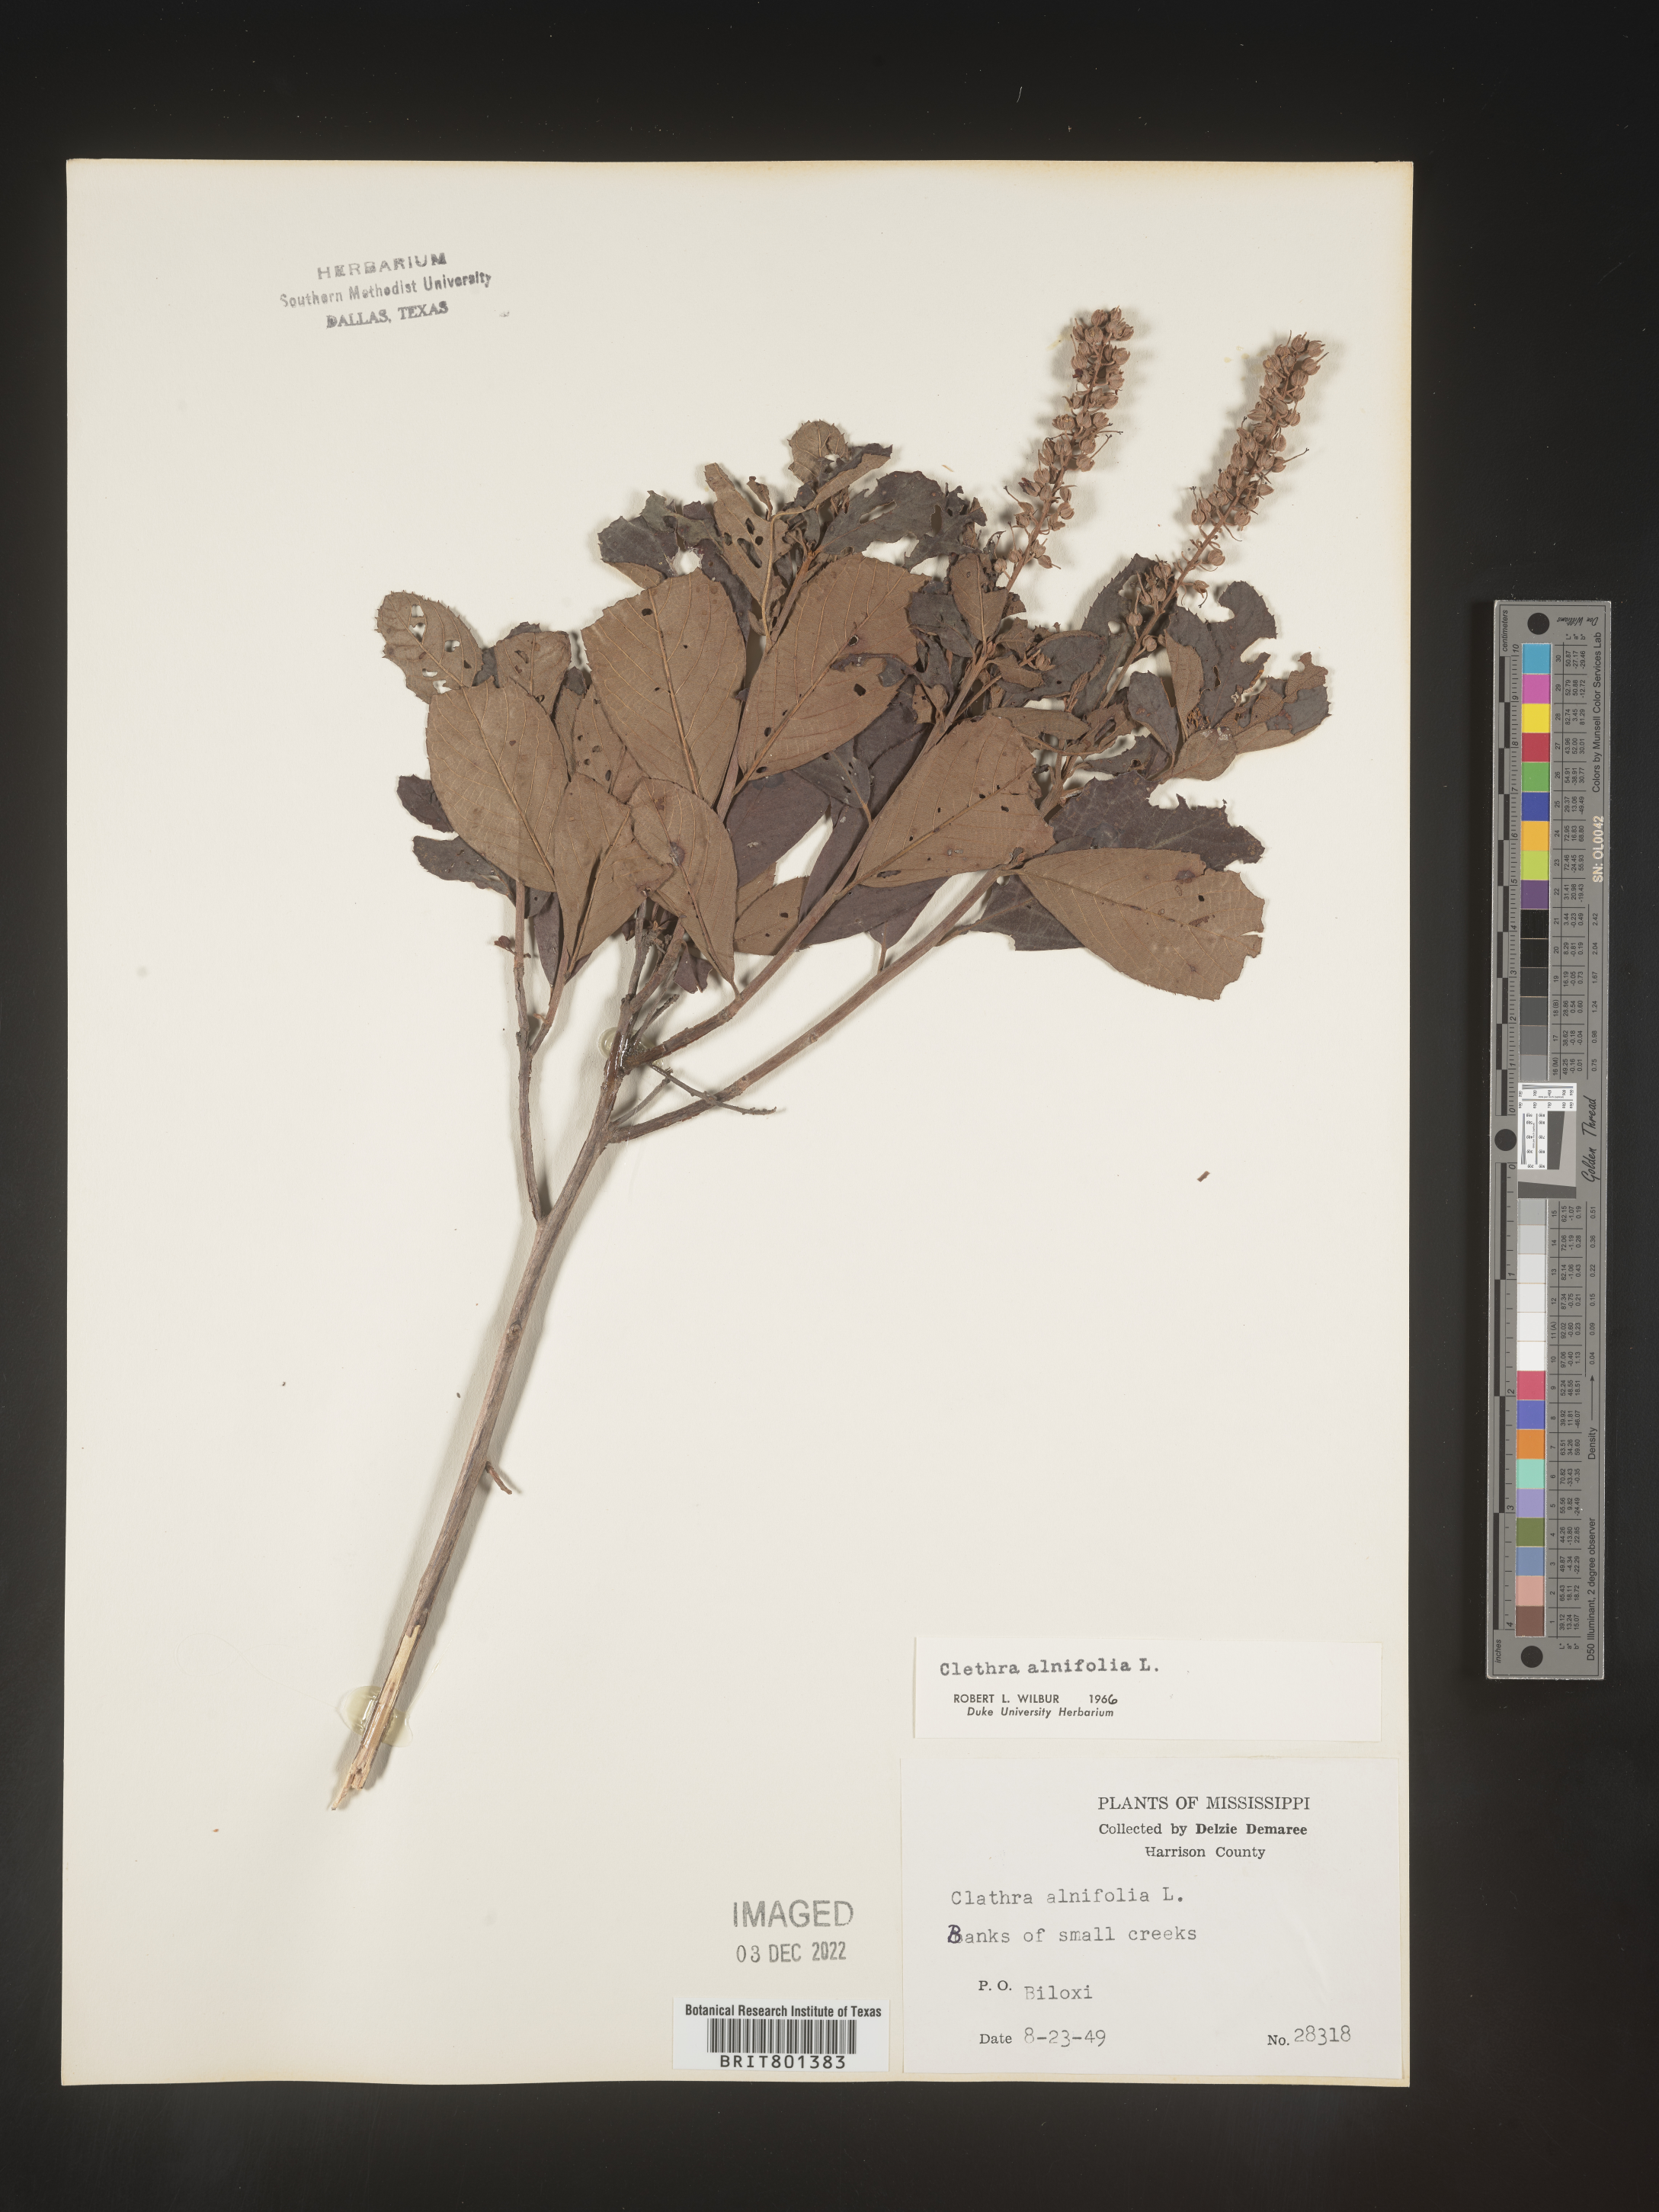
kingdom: Plantae
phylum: Tracheophyta
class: Magnoliopsida
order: Ericales
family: Clethraceae
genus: Clethra
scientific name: Clethra alnifolia
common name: Sweet pepperbush
